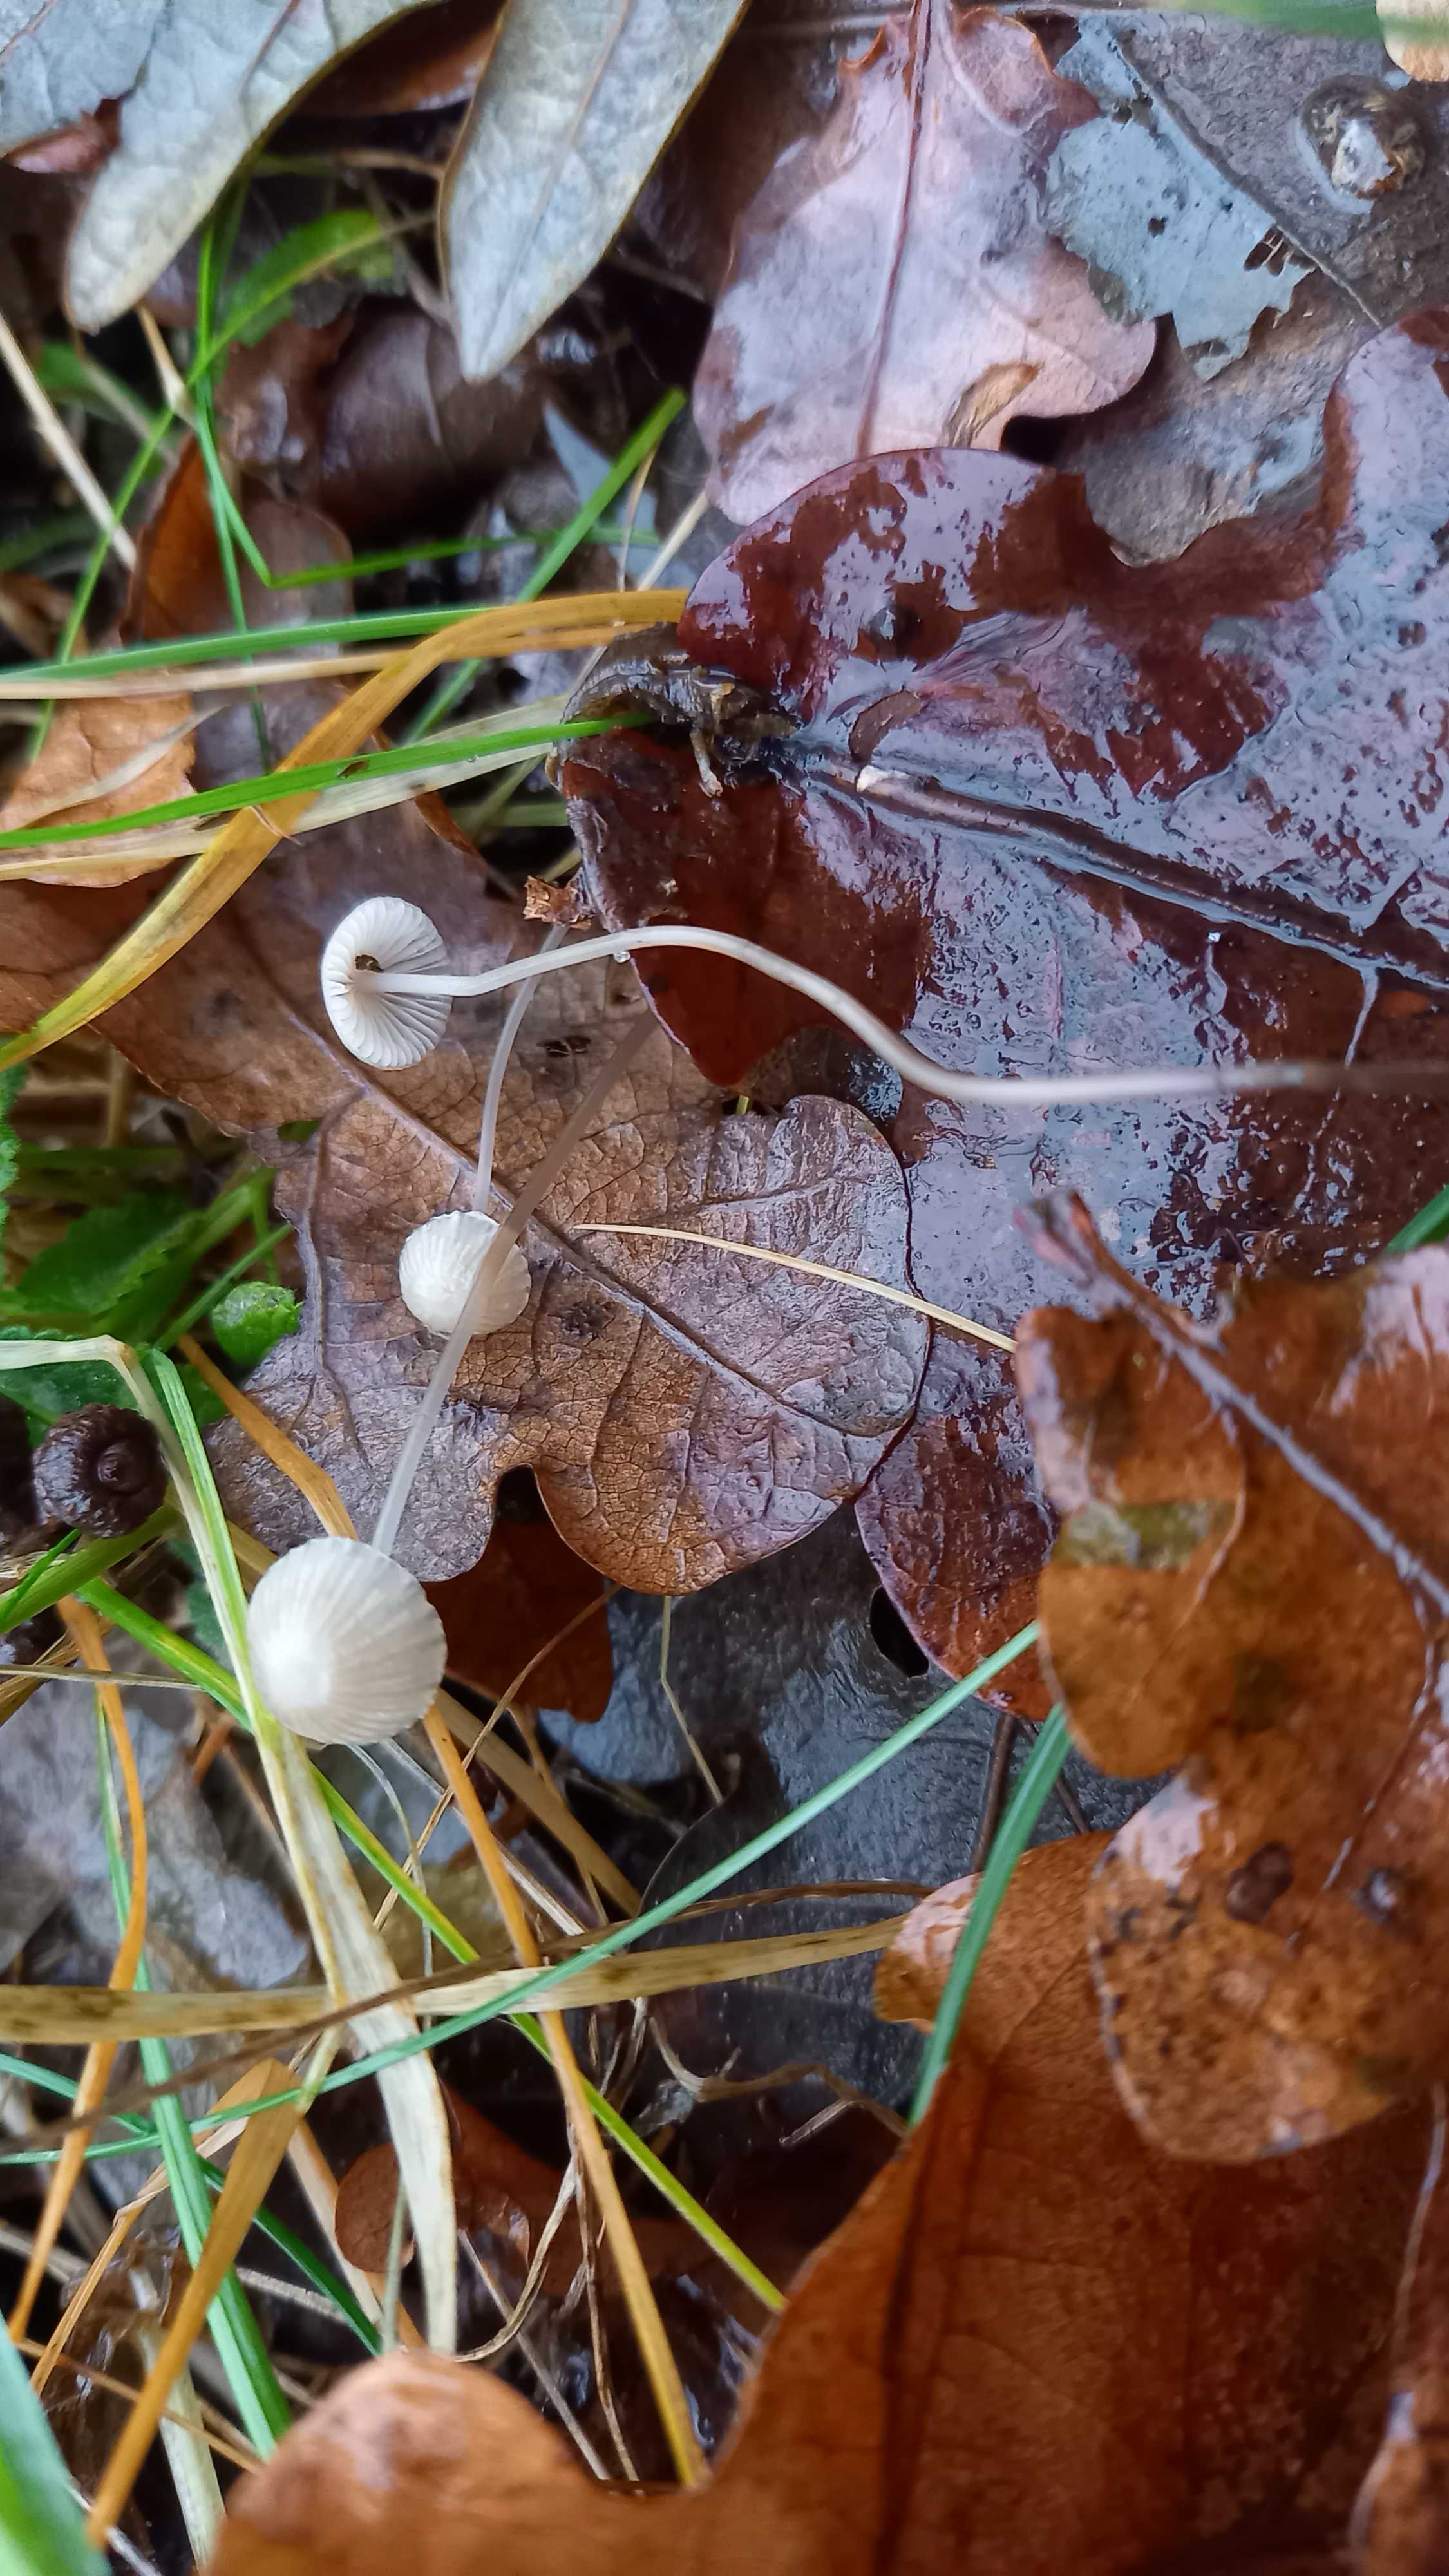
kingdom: Fungi
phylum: Basidiomycota
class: Agaricomycetes
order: Agaricales
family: Mycenaceae
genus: Mycena
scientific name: Mycena
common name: huesvamp
